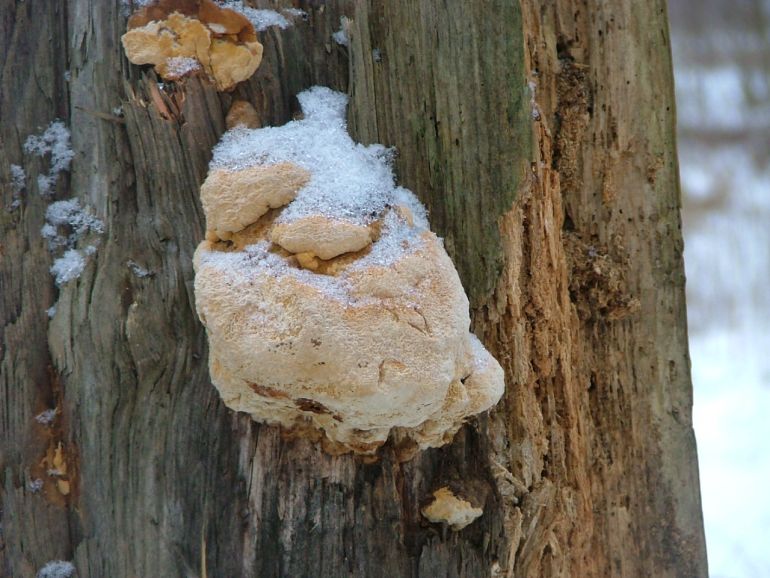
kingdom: Fungi
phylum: Basidiomycota
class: Agaricomycetes
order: Gloeophyllales
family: Gloeophyllaceae
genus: Gloeophyllum
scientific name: Gloeophyllum odoratum
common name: duftende korkhat
